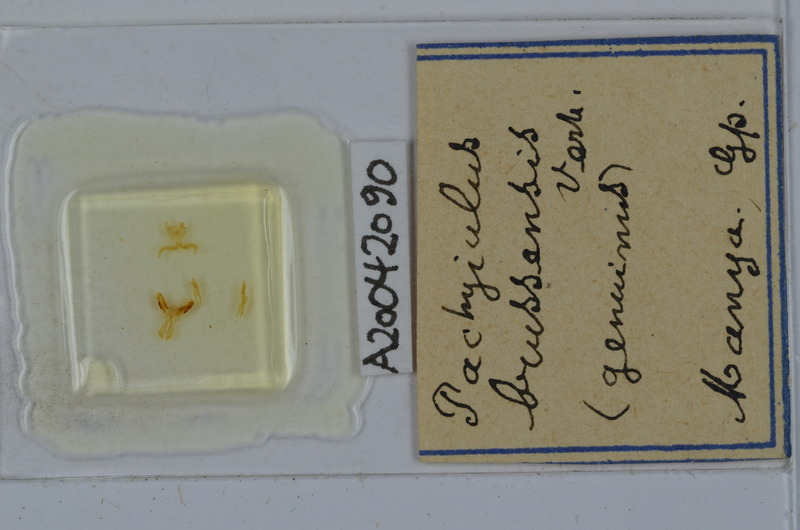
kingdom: Animalia
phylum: Arthropoda
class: Diplopoda
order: Julida
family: Julidae
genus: Pachyiulus
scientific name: Pachyiulus brussensis
